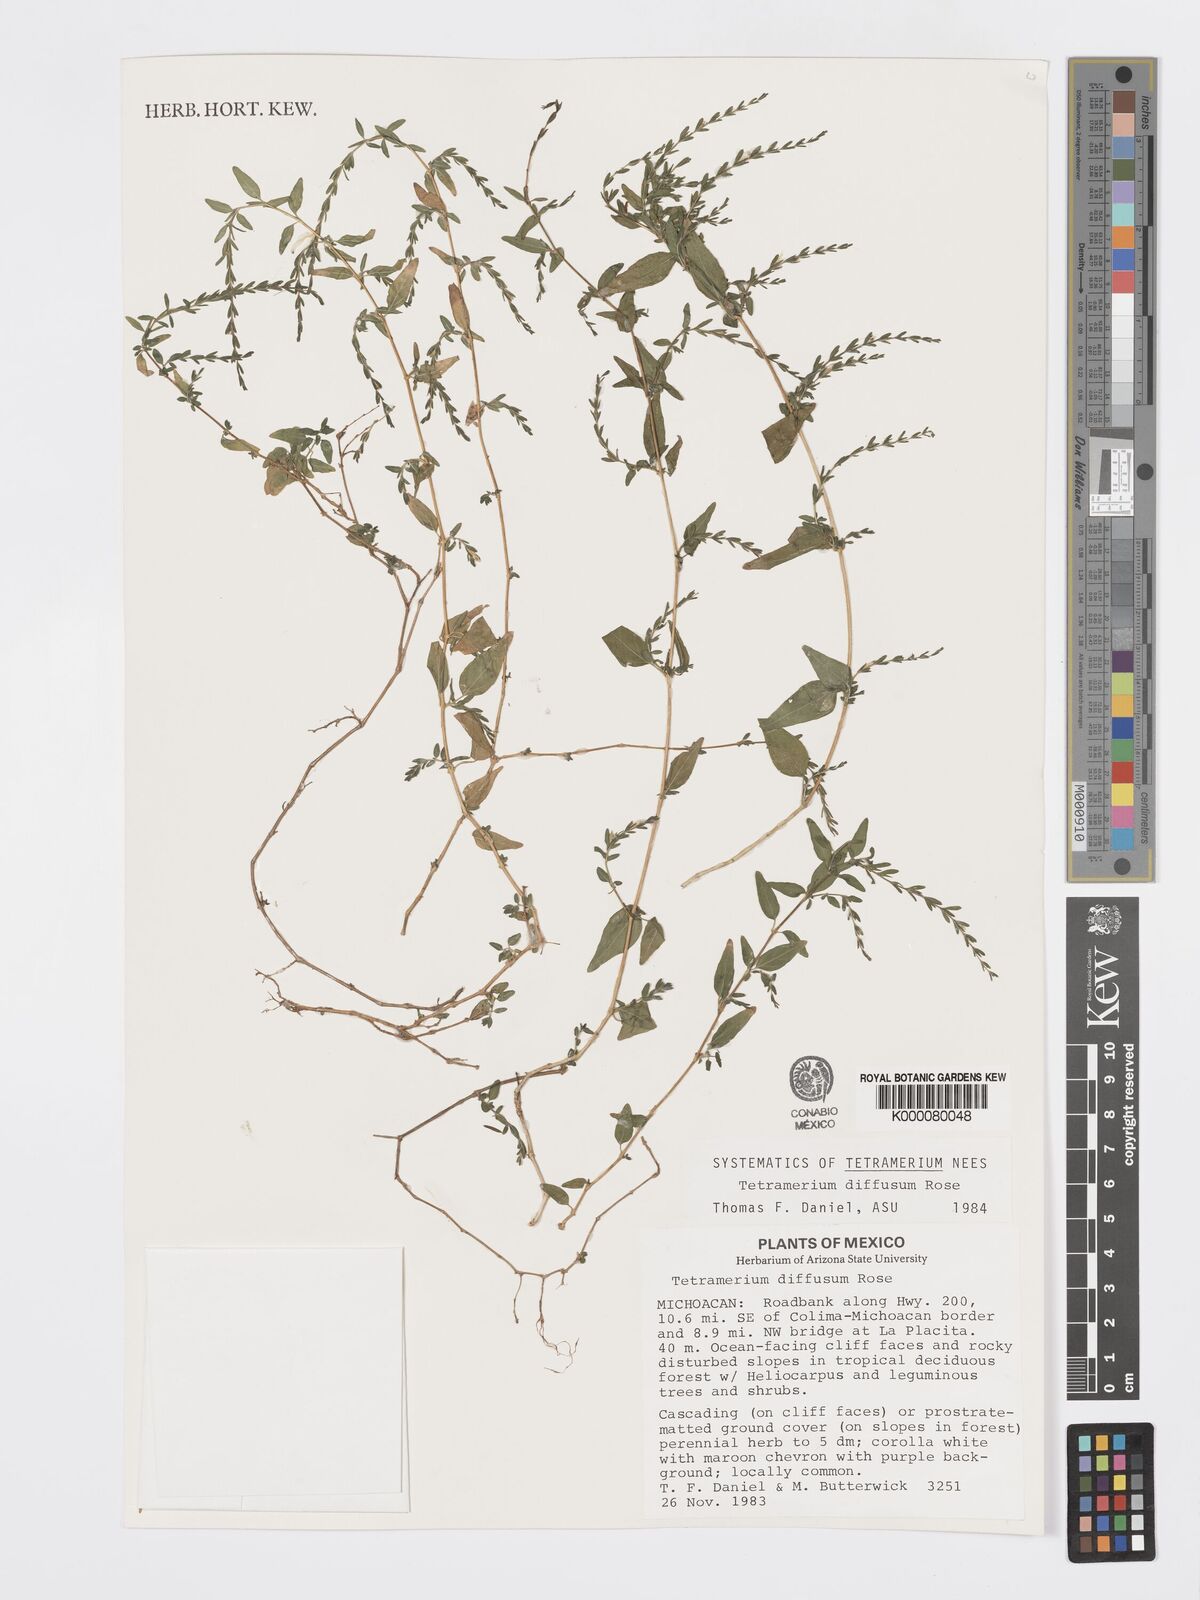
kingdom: Plantae
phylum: Tracheophyta
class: Magnoliopsida
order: Lamiales
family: Acanthaceae
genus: Tetramerium
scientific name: Tetramerium diffusum
